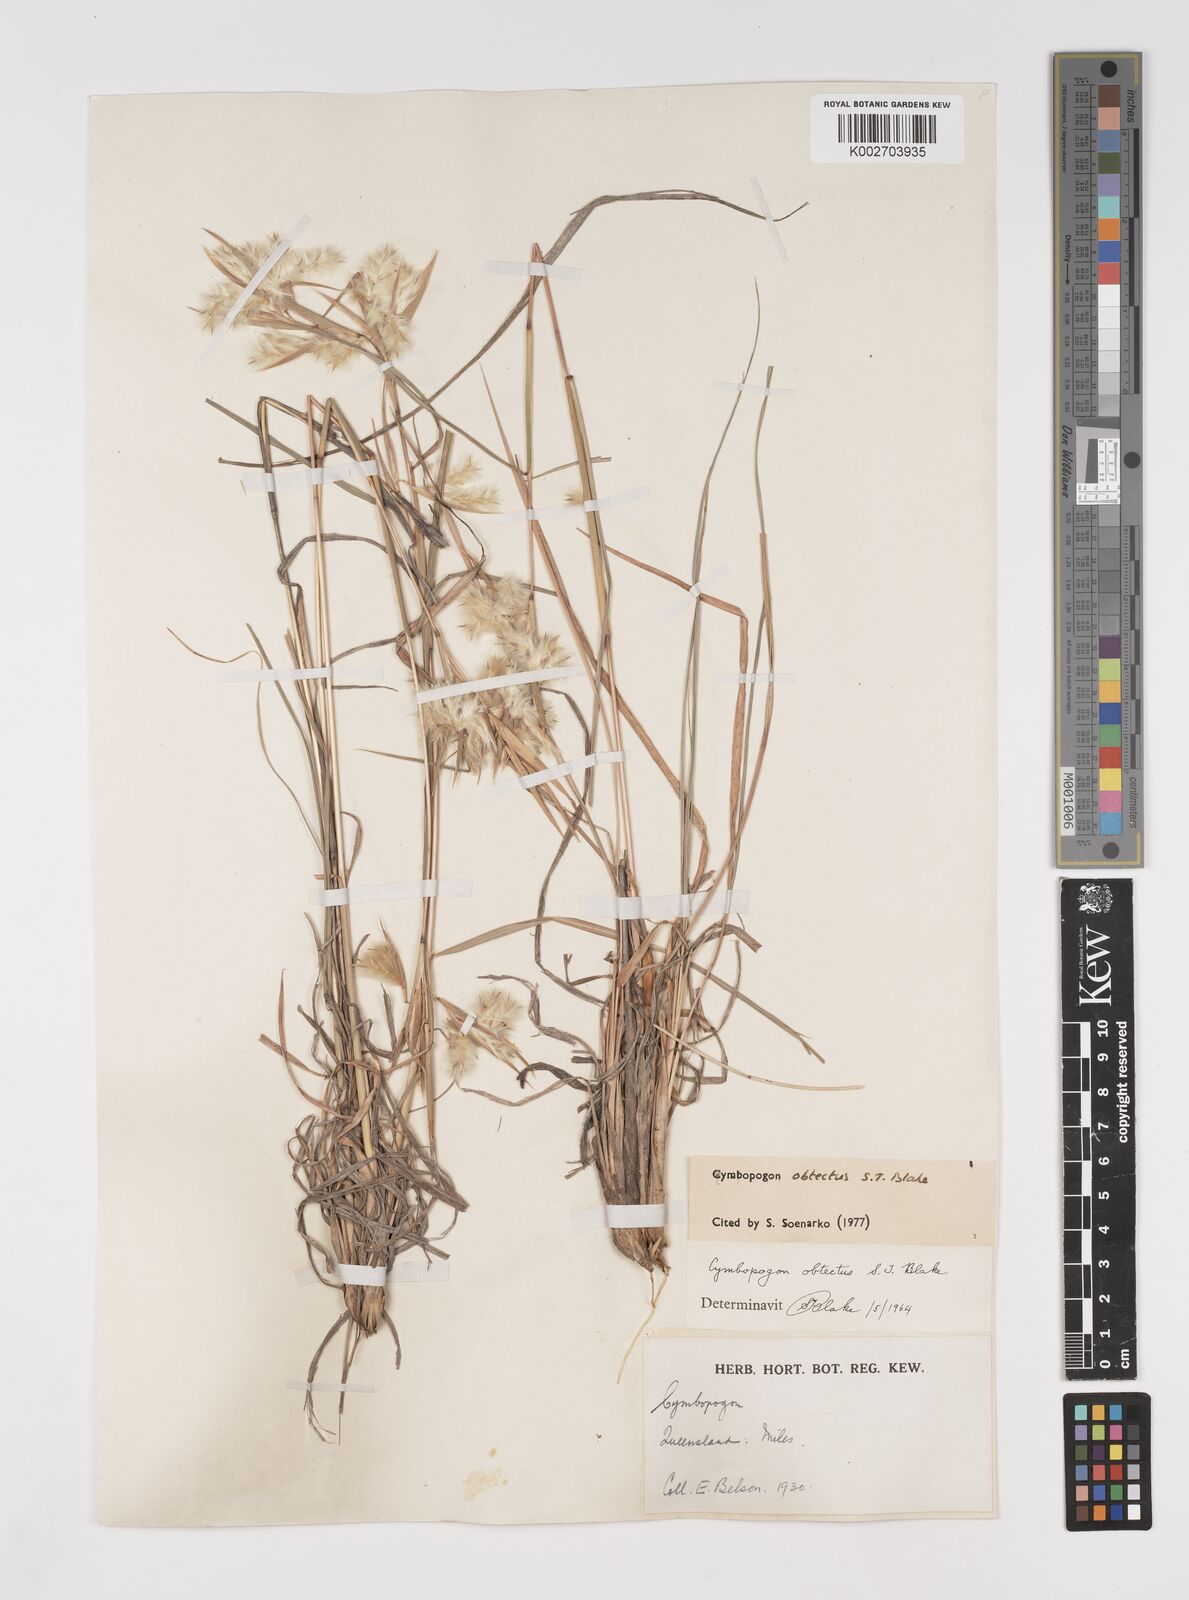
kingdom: Plantae
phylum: Tracheophyta
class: Liliopsida
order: Poales
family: Poaceae
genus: Cymbopogon
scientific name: Cymbopogon obtectus
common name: Silky heads
